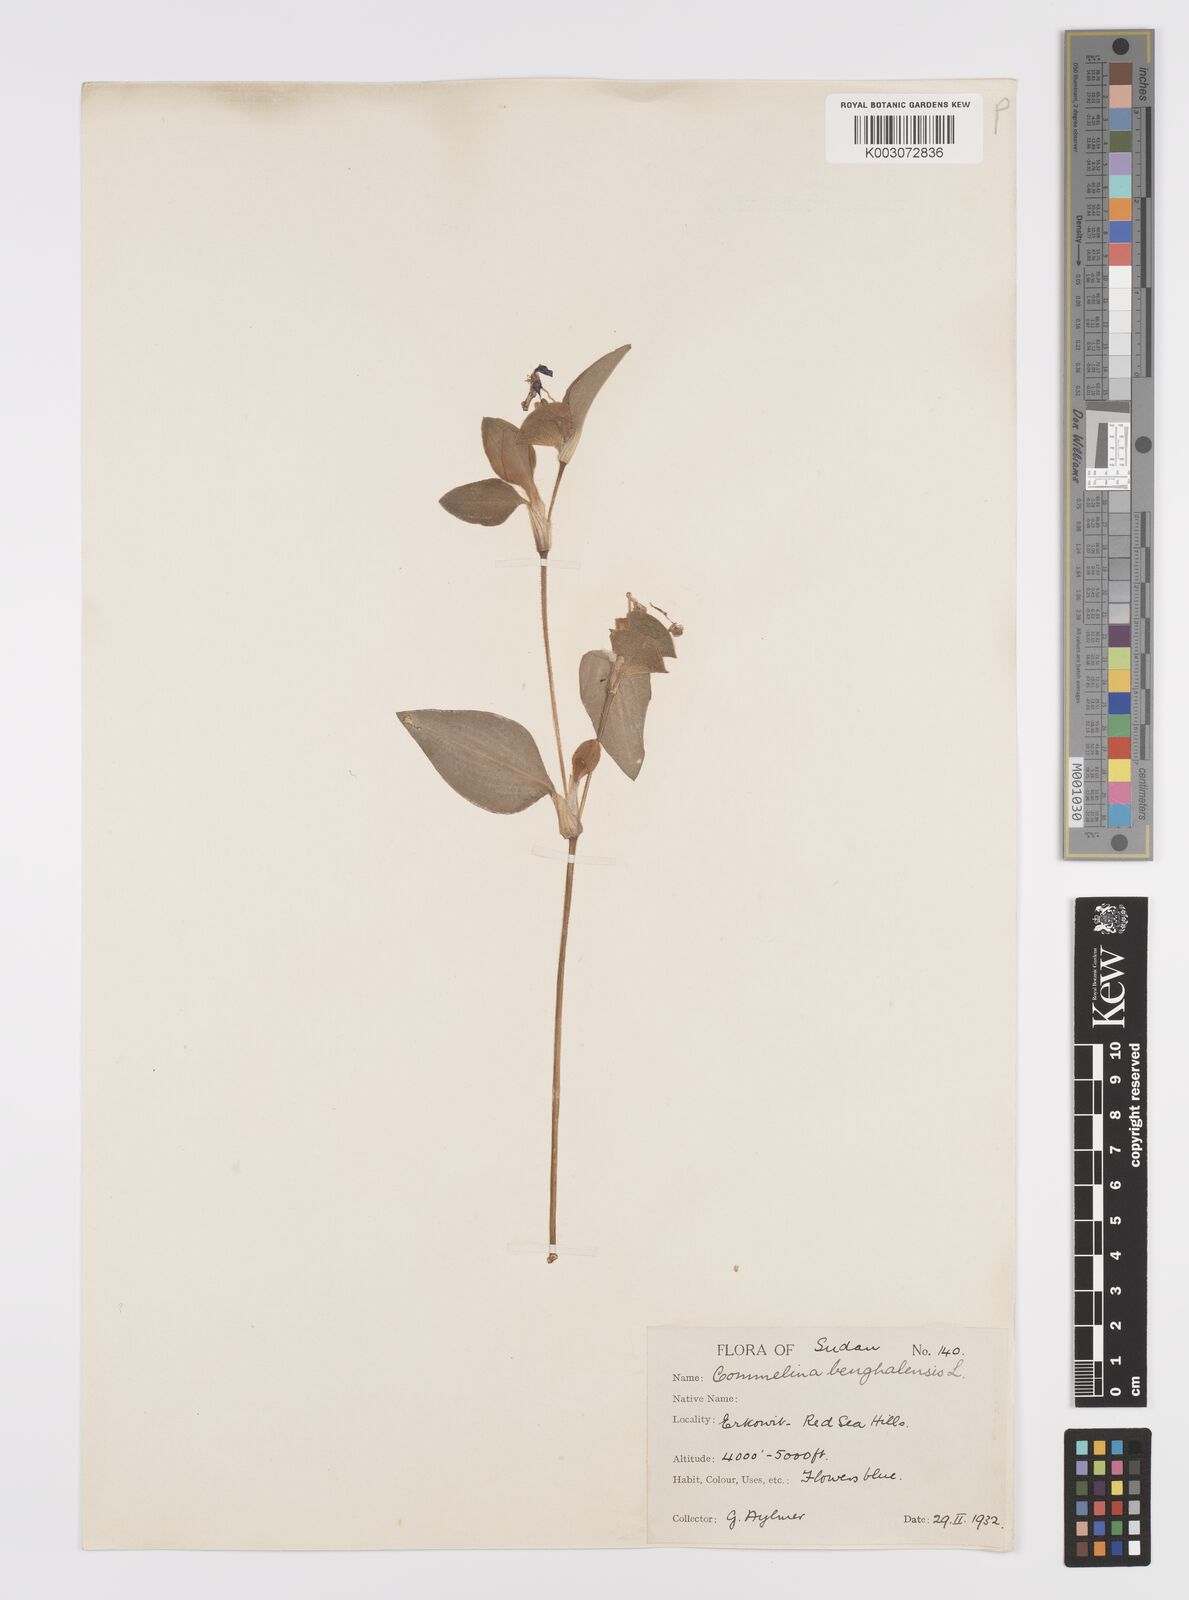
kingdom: Plantae
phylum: Tracheophyta
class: Liliopsida
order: Commelinales
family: Commelinaceae
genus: Commelina
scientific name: Commelina benghalensis
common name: Jio
